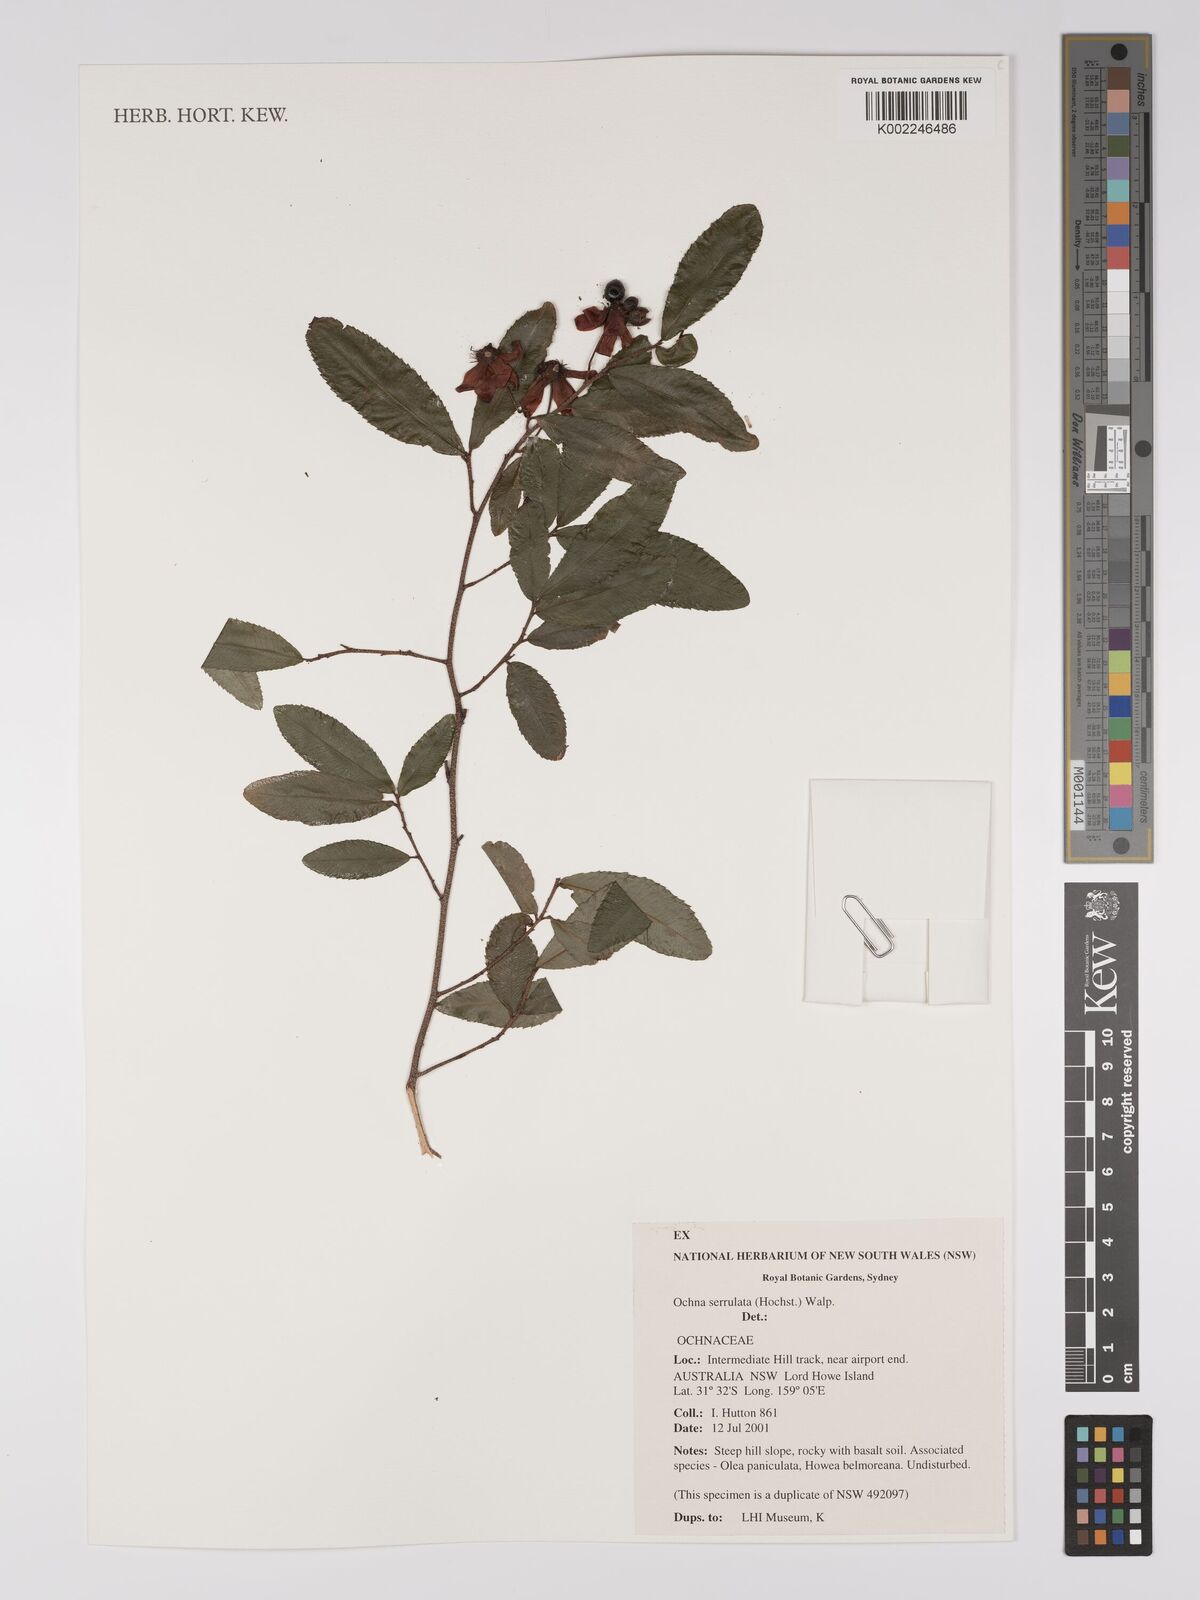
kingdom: Plantae
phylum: Tracheophyta
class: Magnoliopsida
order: Malpighiales
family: Ochnaceae
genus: Ochna
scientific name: Ochna atropurpurea
